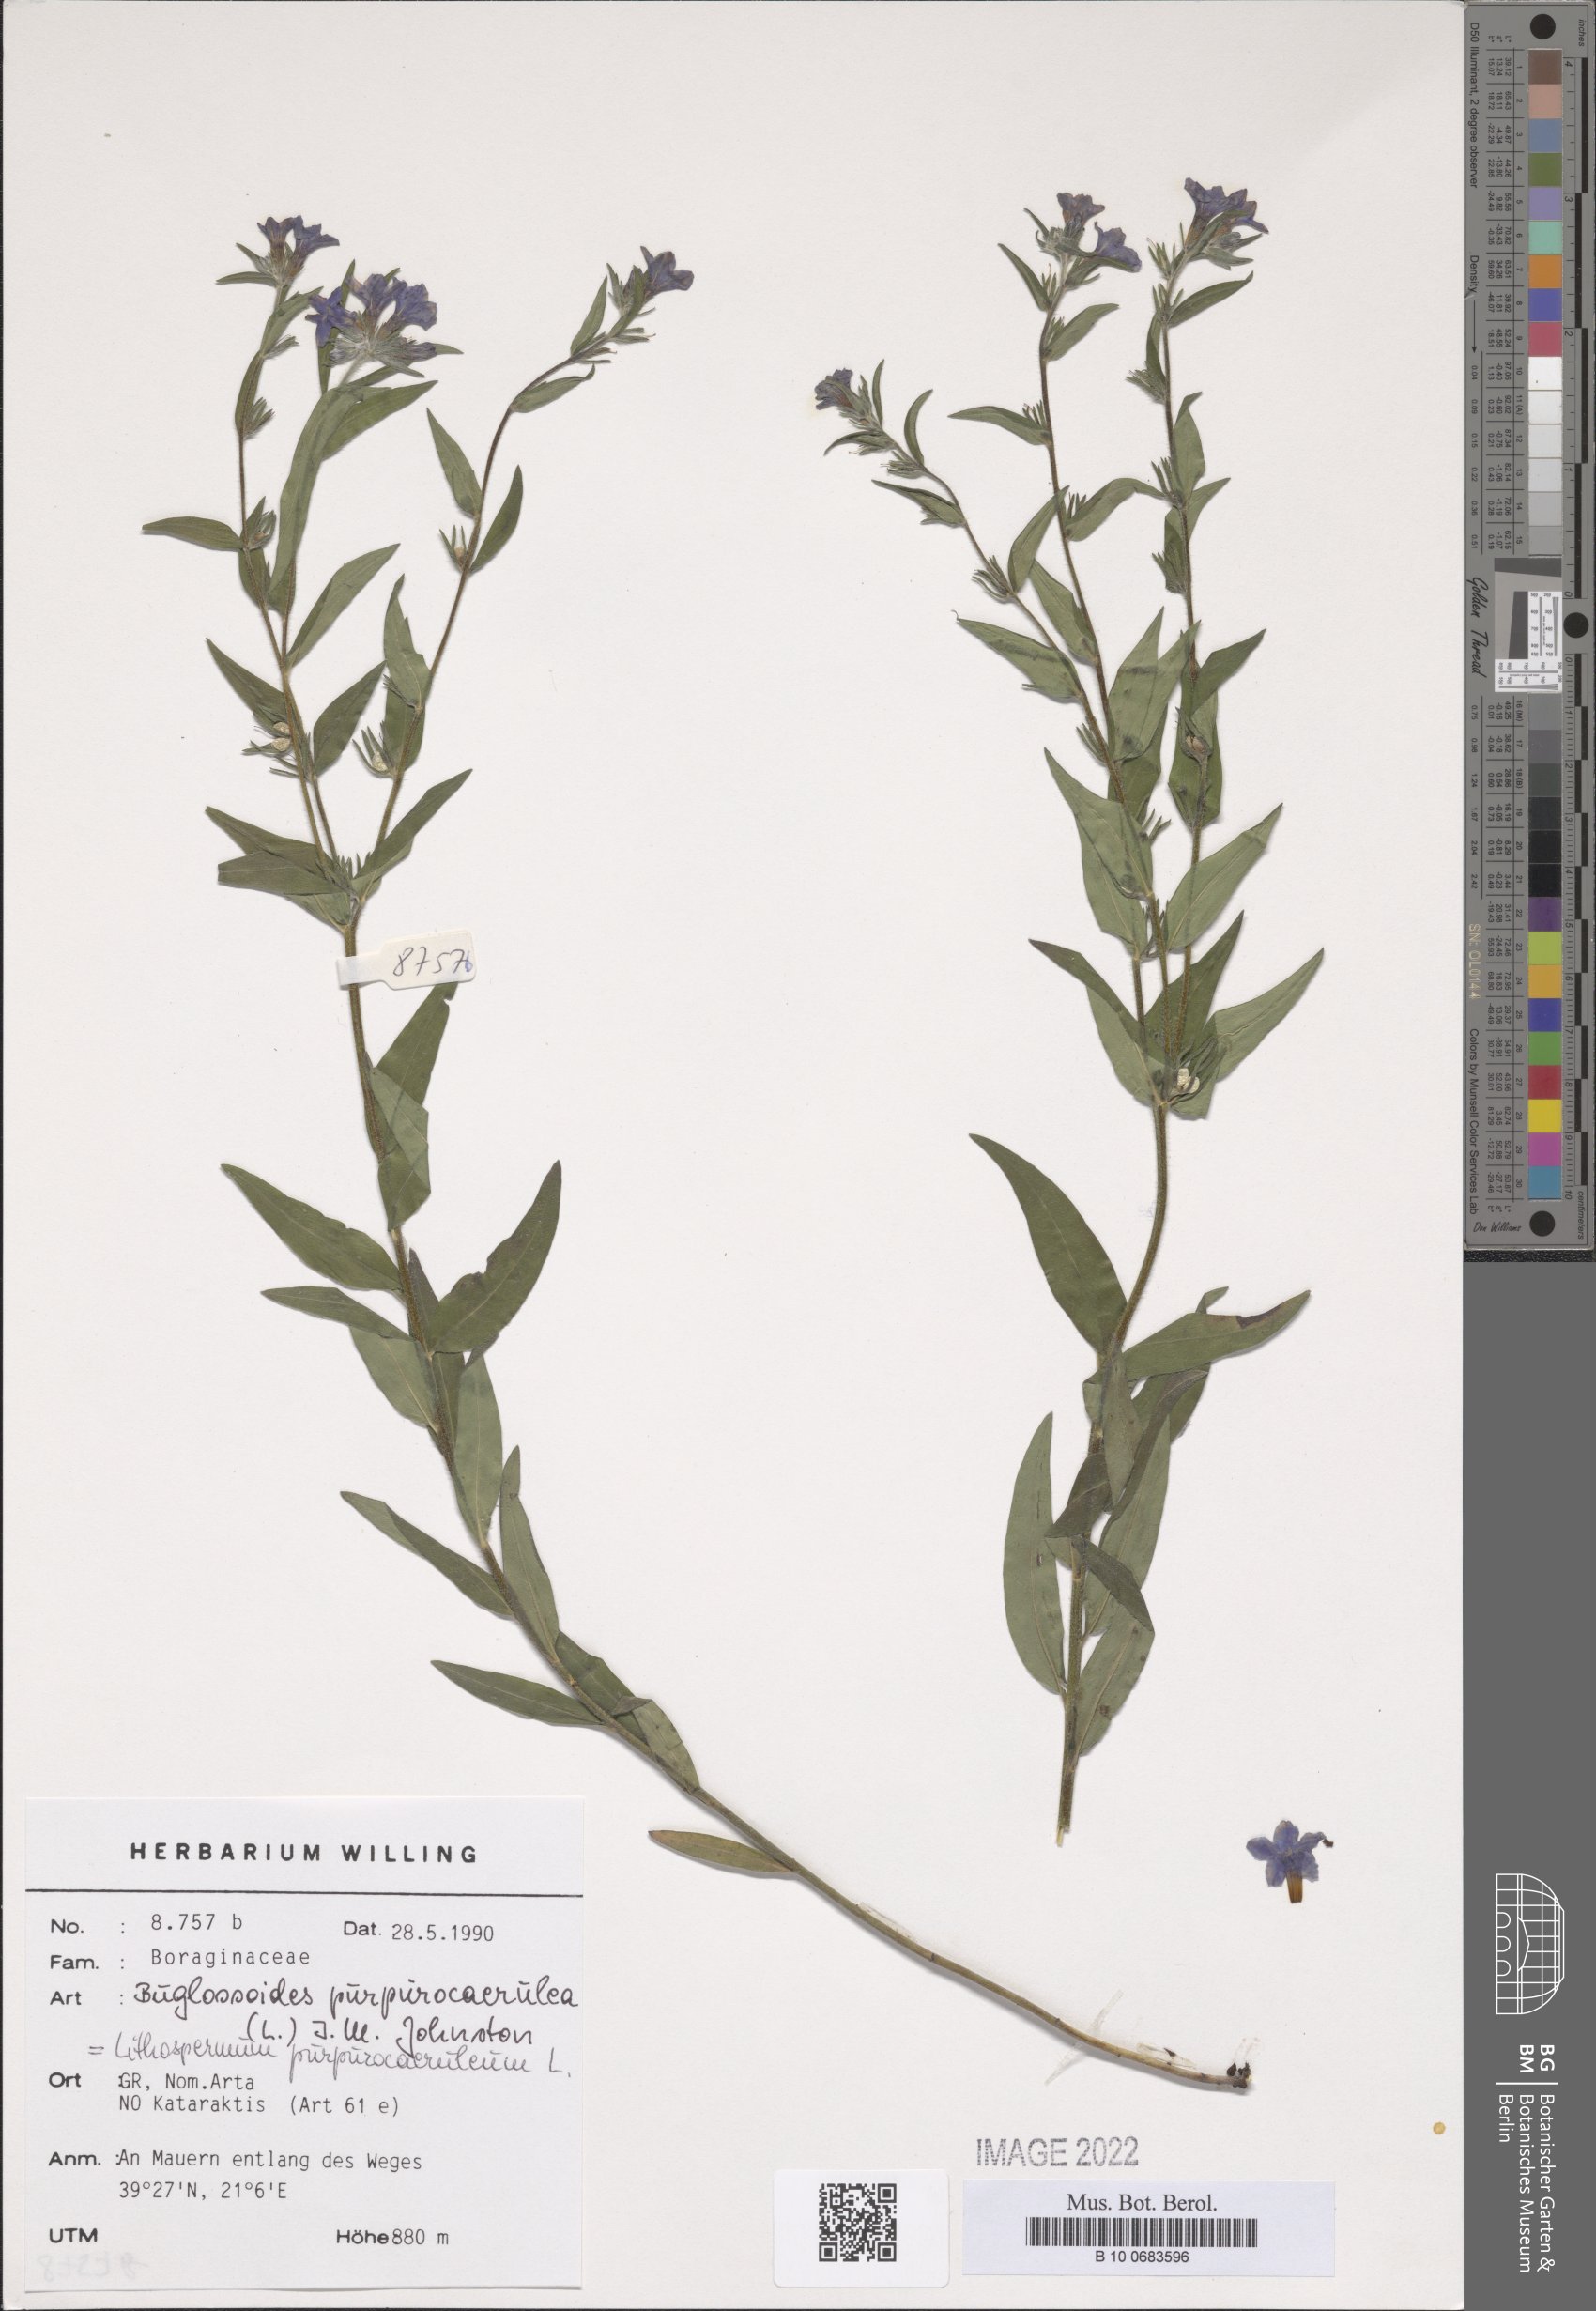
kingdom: Plantae
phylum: Tracheophyta
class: Magnoliopsida
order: Boraginales
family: Boraginaceae
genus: Aegonychon
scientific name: Aegonychon purpurocaeruleum
